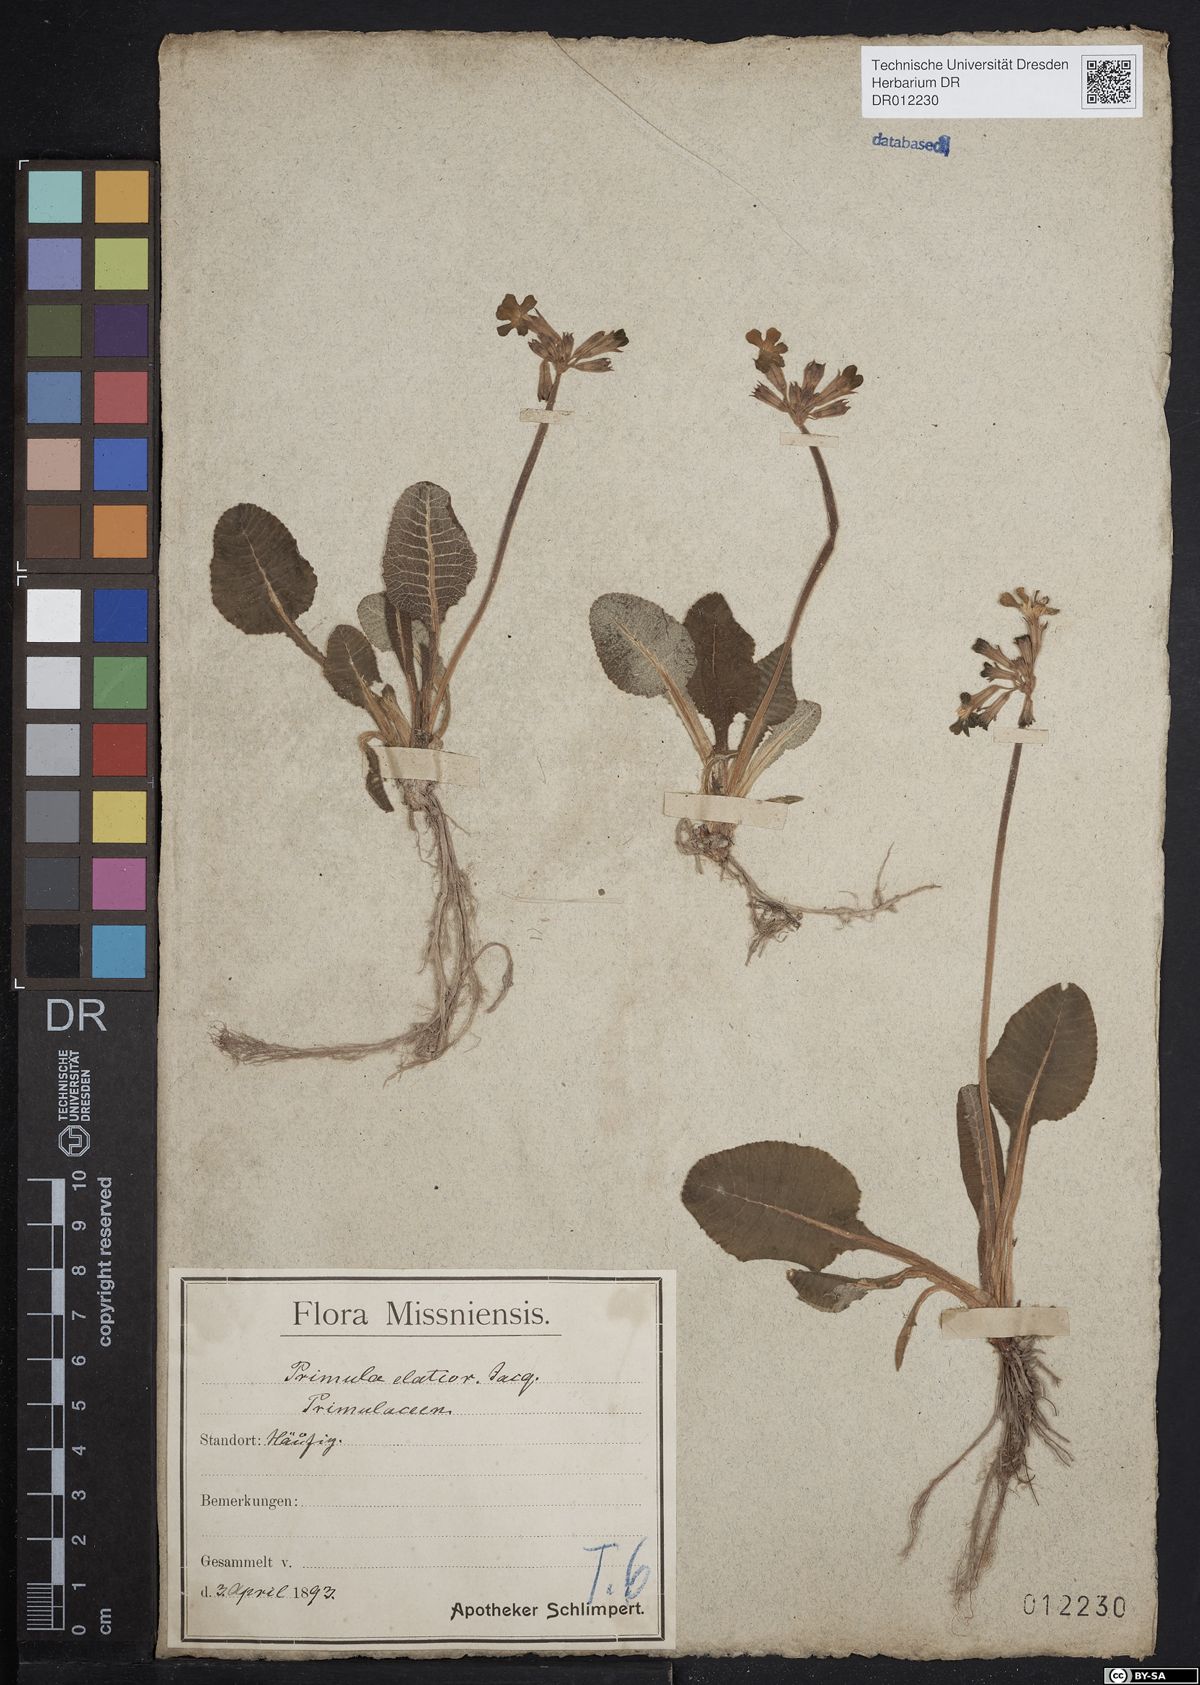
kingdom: Plantae
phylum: Tracheophyta
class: Magnoliopsida
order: Ericales
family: Primulaceae
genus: Primula
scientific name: Primula elatior
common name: Oxlip
